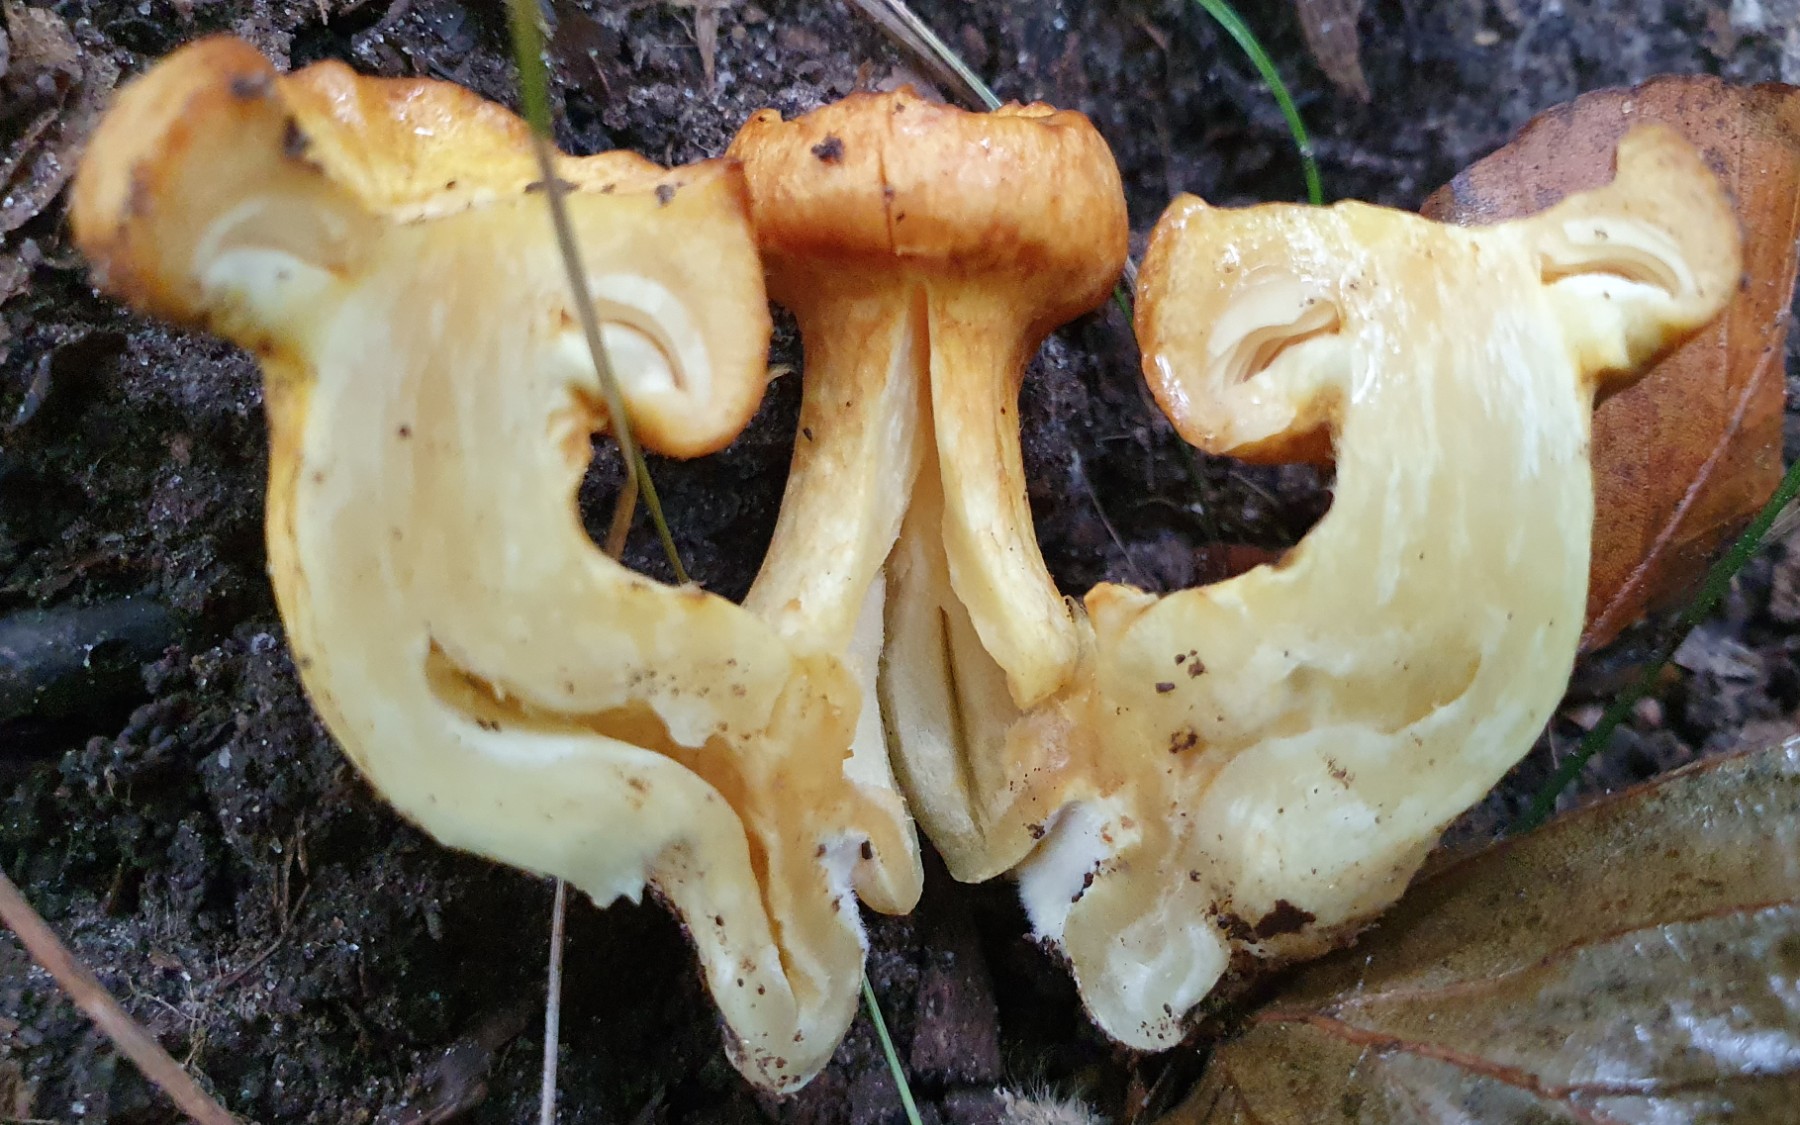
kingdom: Fungi
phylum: Basidiomycota
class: Agaricomycetes
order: Agaricales
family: Hymenogastraceae
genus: Gymnopilus
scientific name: Gymnopilus spectabilis
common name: fibret flammehat
